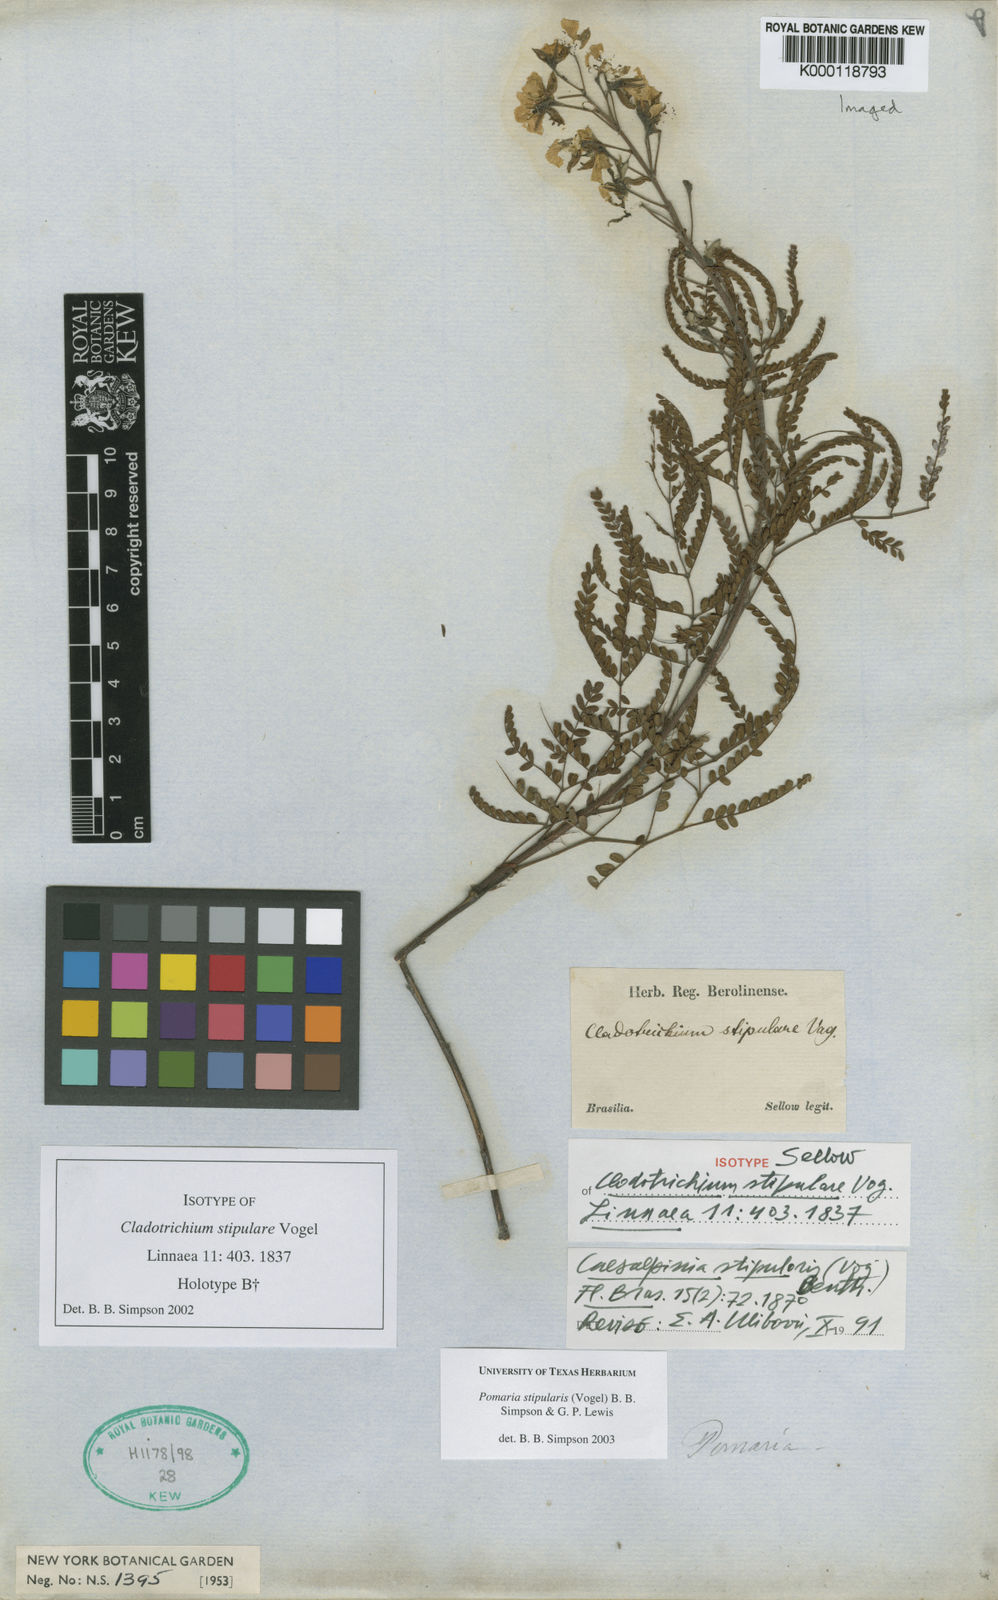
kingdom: Plantae
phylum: Tracheophyta
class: Magnoliopsida
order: Fabales
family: Fabaceae
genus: Pomaria
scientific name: Pomaria stipularis
